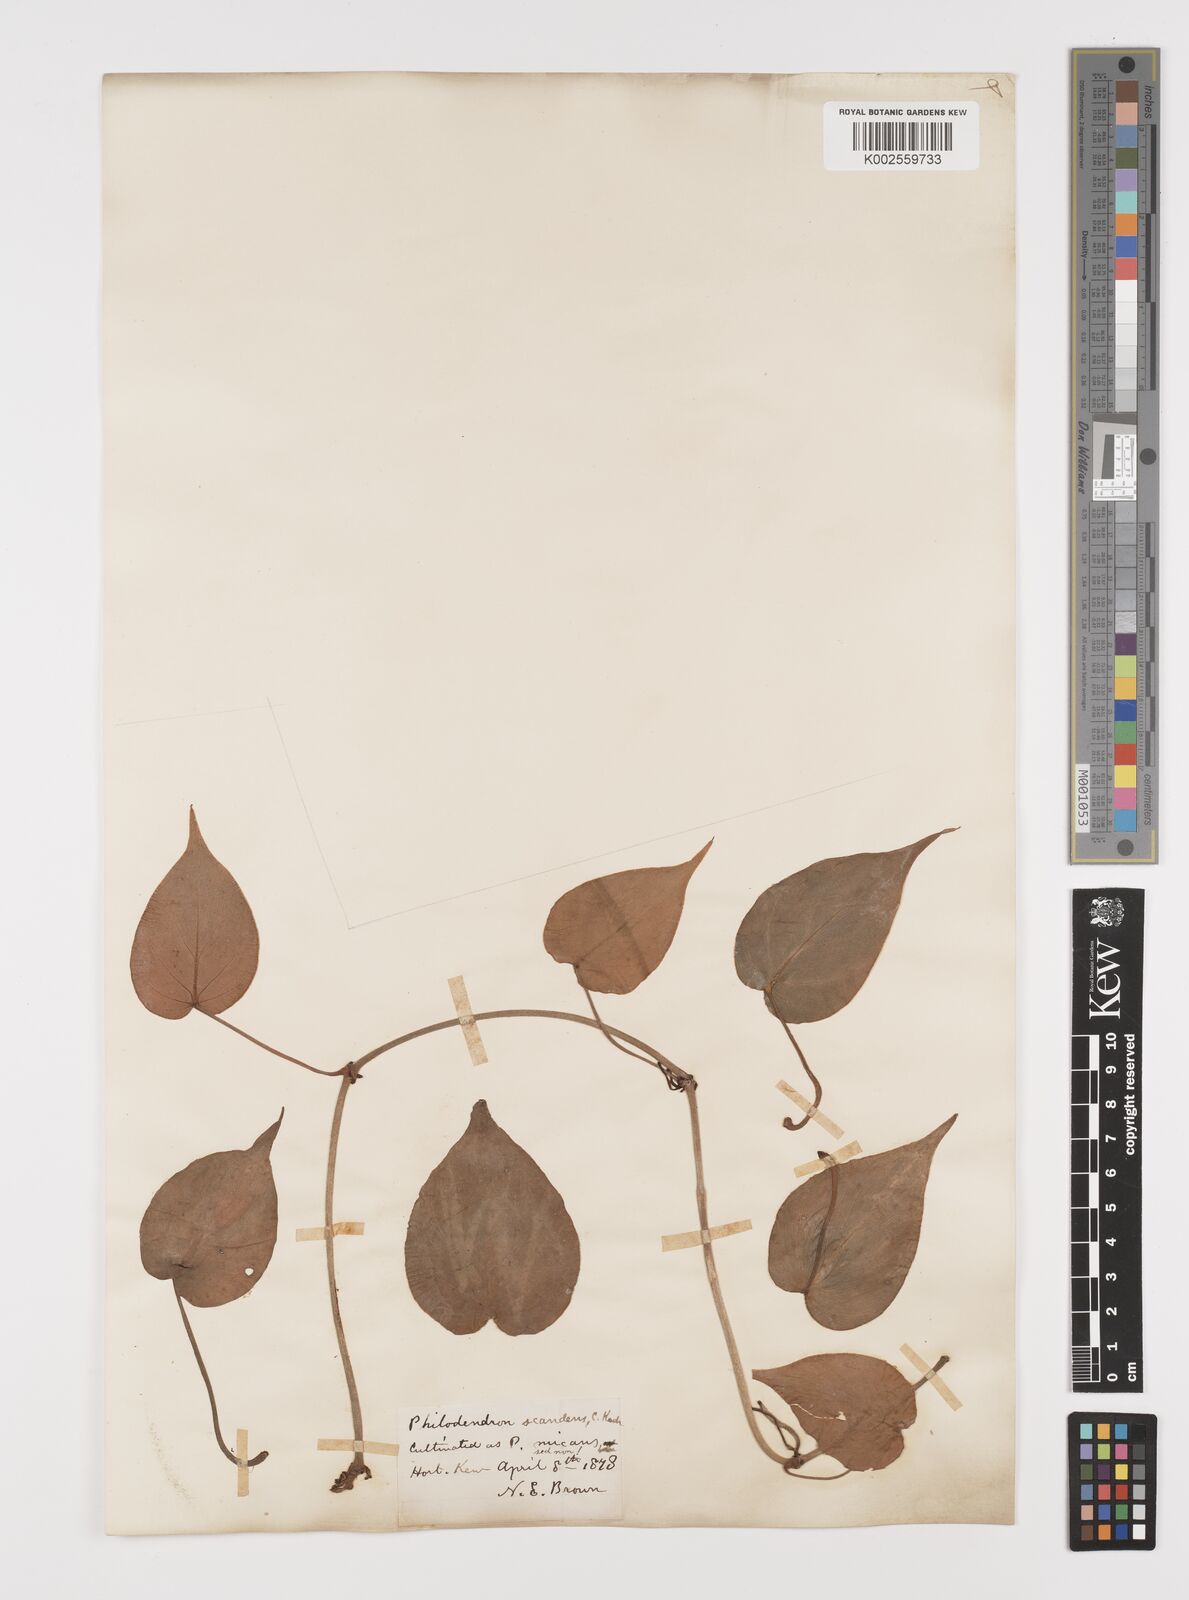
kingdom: Plantae
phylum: Tracheophyta
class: Liliopsida
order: Alismatales
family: Araceae
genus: Philodendron
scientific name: Philodendron hederaceum
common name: Vilevine
